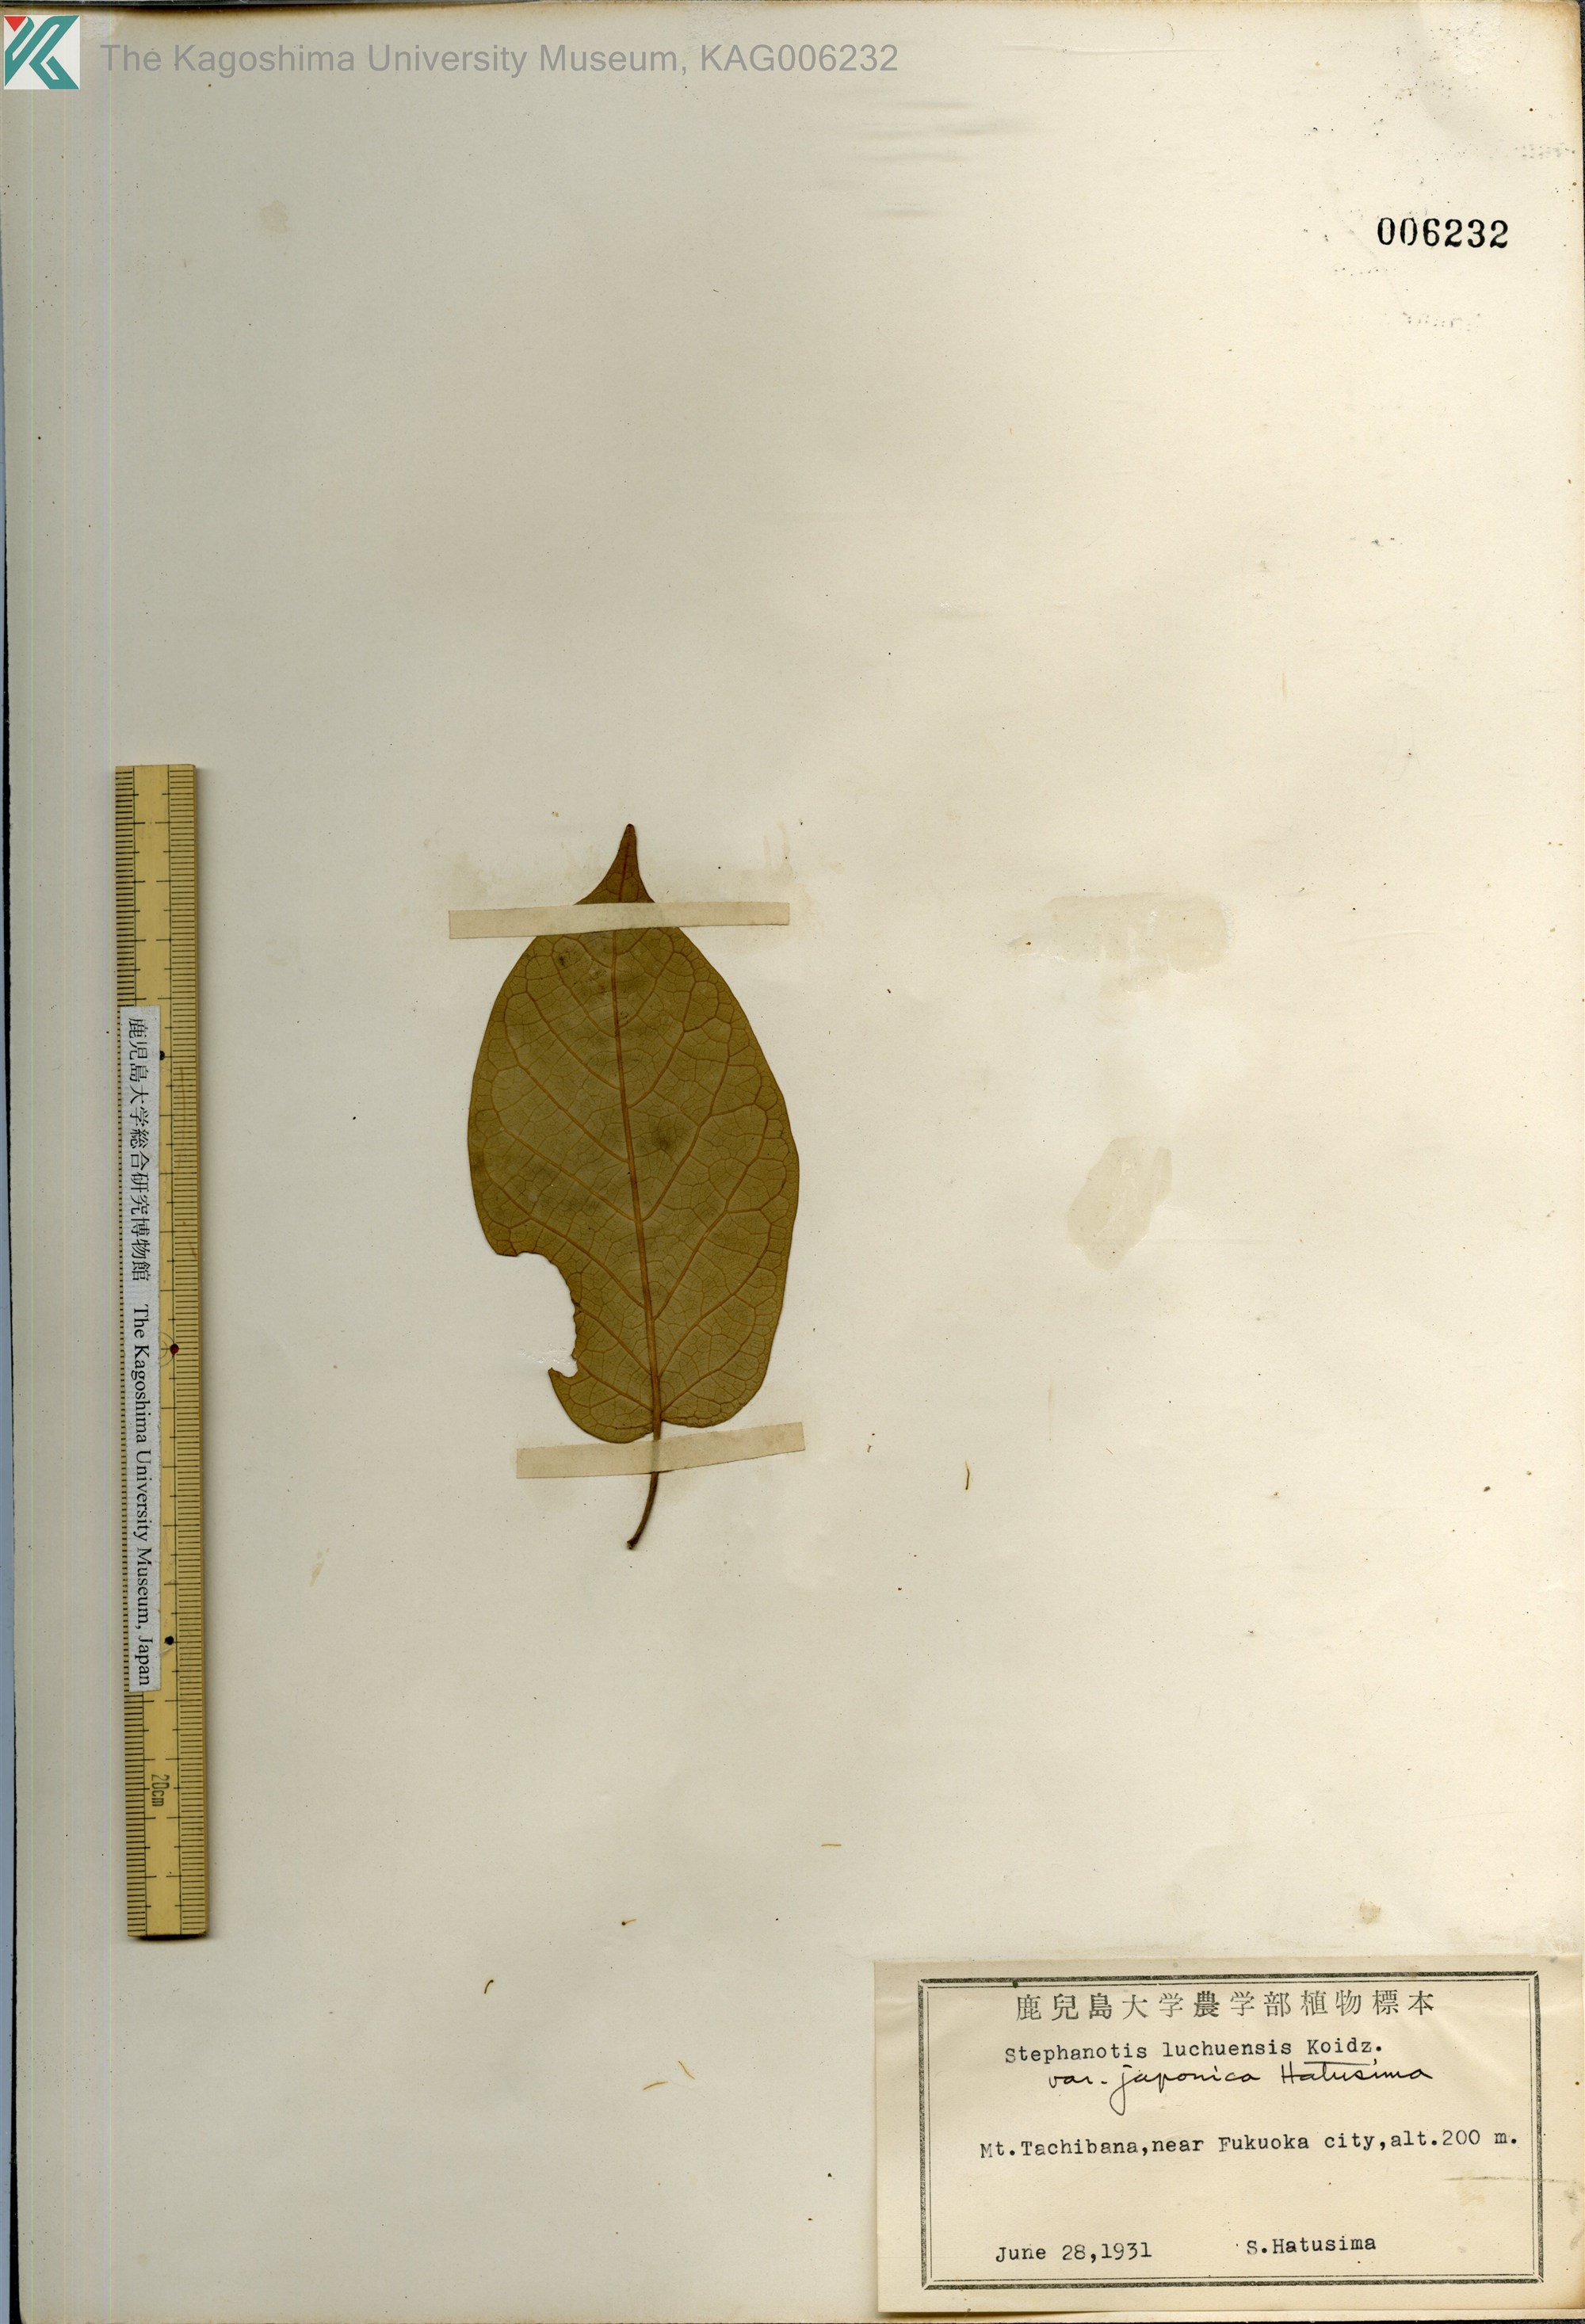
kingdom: Plantae
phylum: Tracheophyta
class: Magnoliopsida
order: Gentianales
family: Apocynaceae
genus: Jasminanthes
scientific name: Jasminanthes mucronata
